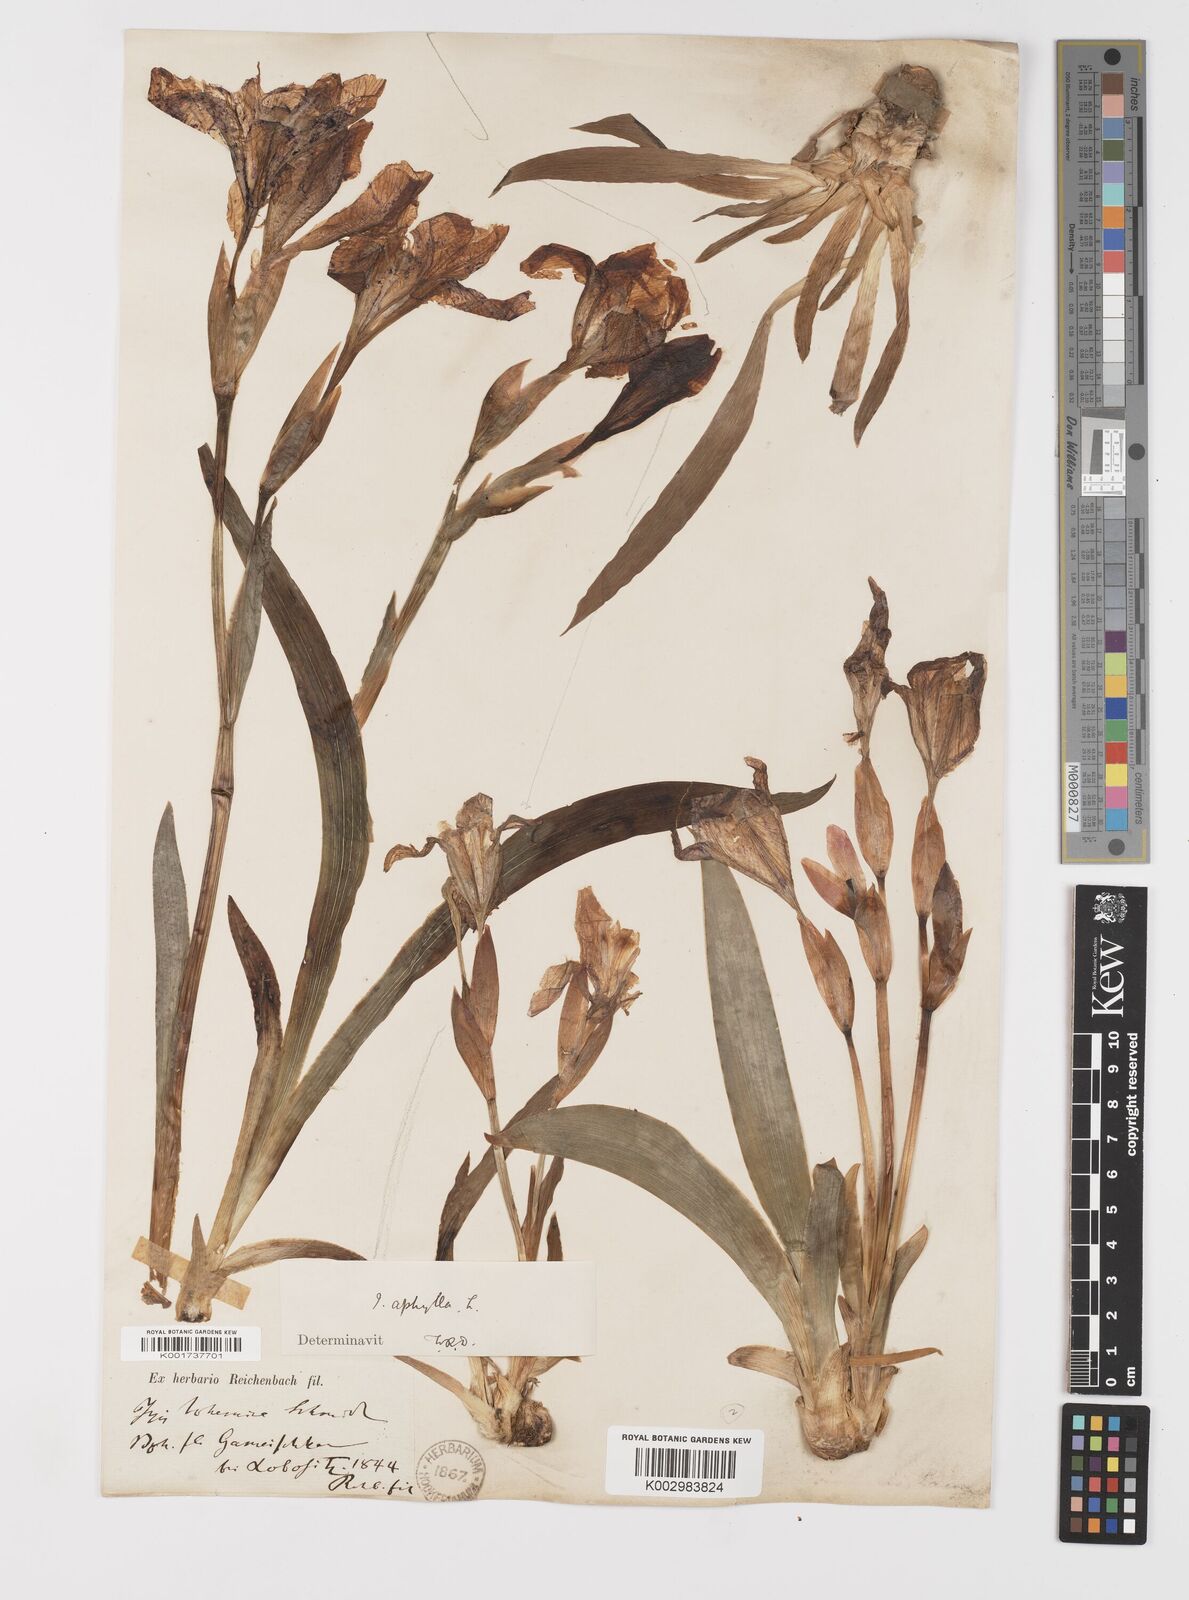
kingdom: Plantae
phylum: Tracheophyta
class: Liliopsida
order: Asparagales
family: Iridaceae
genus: Iris
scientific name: Iris aphylla
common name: Stool iris
